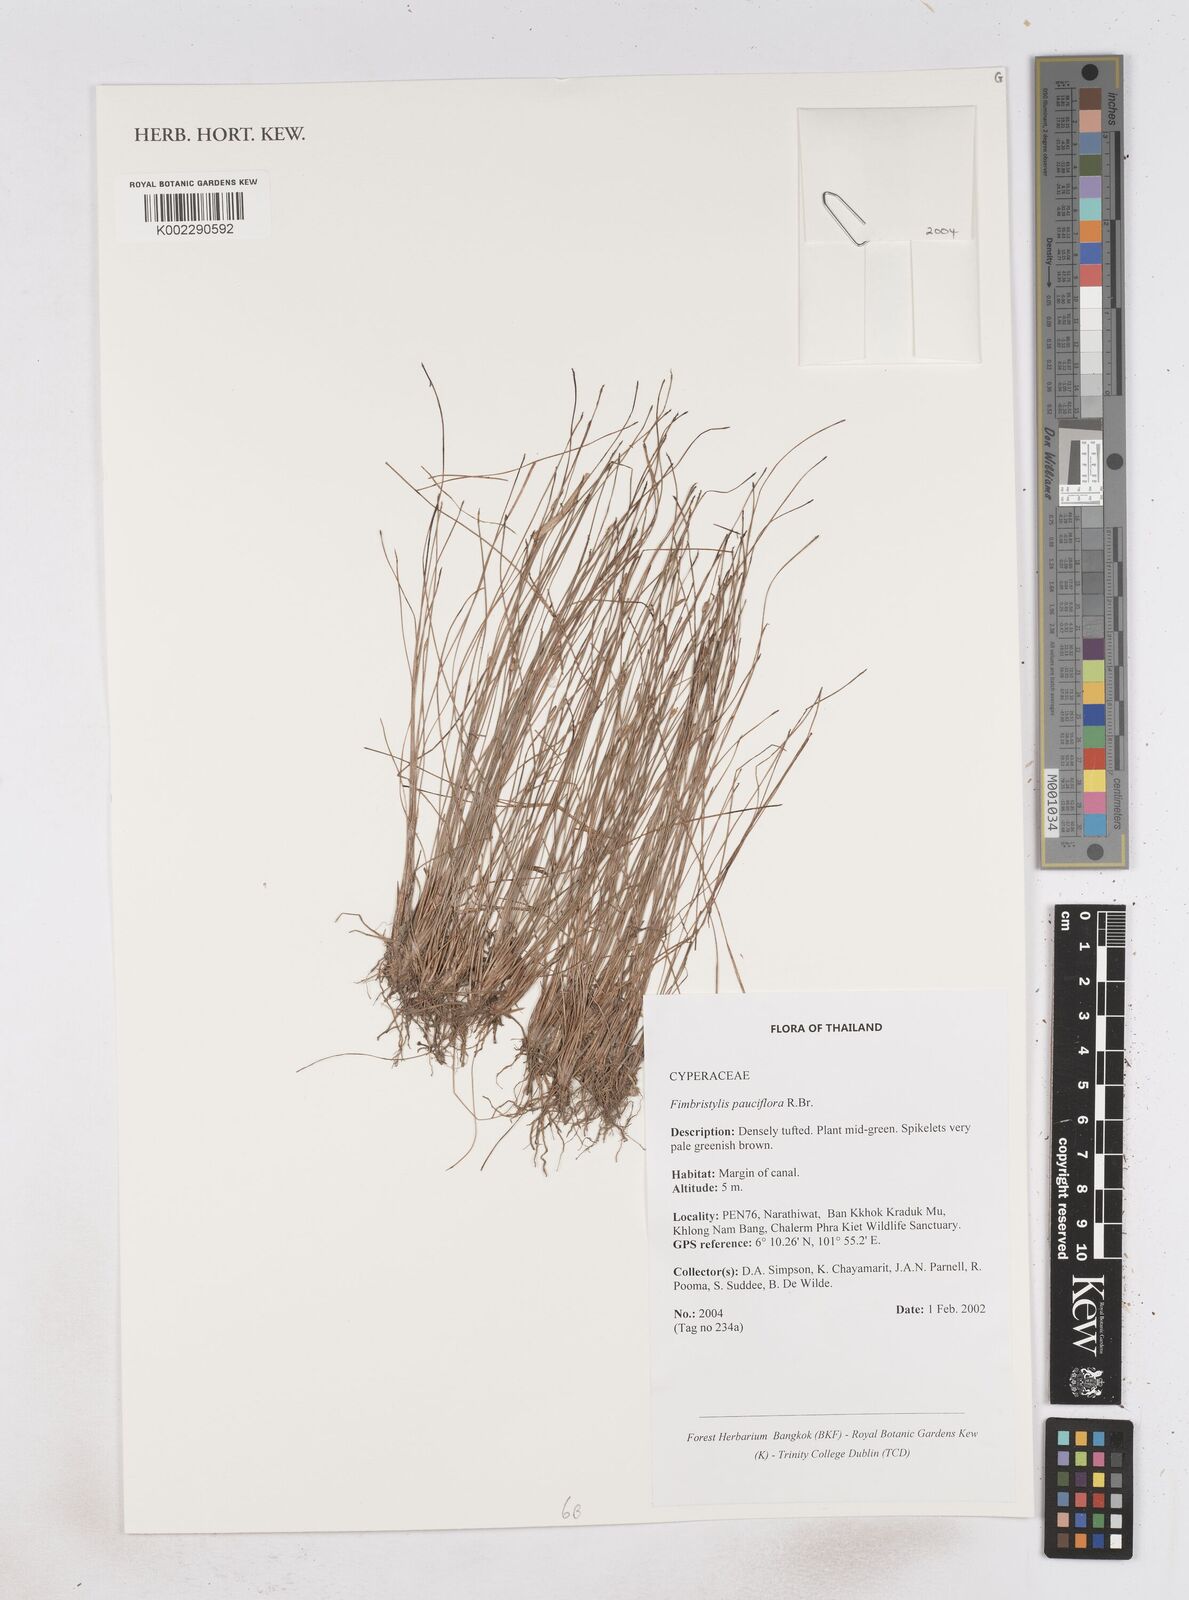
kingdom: Plantae
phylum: Tracheophyta
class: Liliopsida
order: Poales
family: Cyperaceae
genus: Fimbristylis
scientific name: Fimbristylis pauciflora
